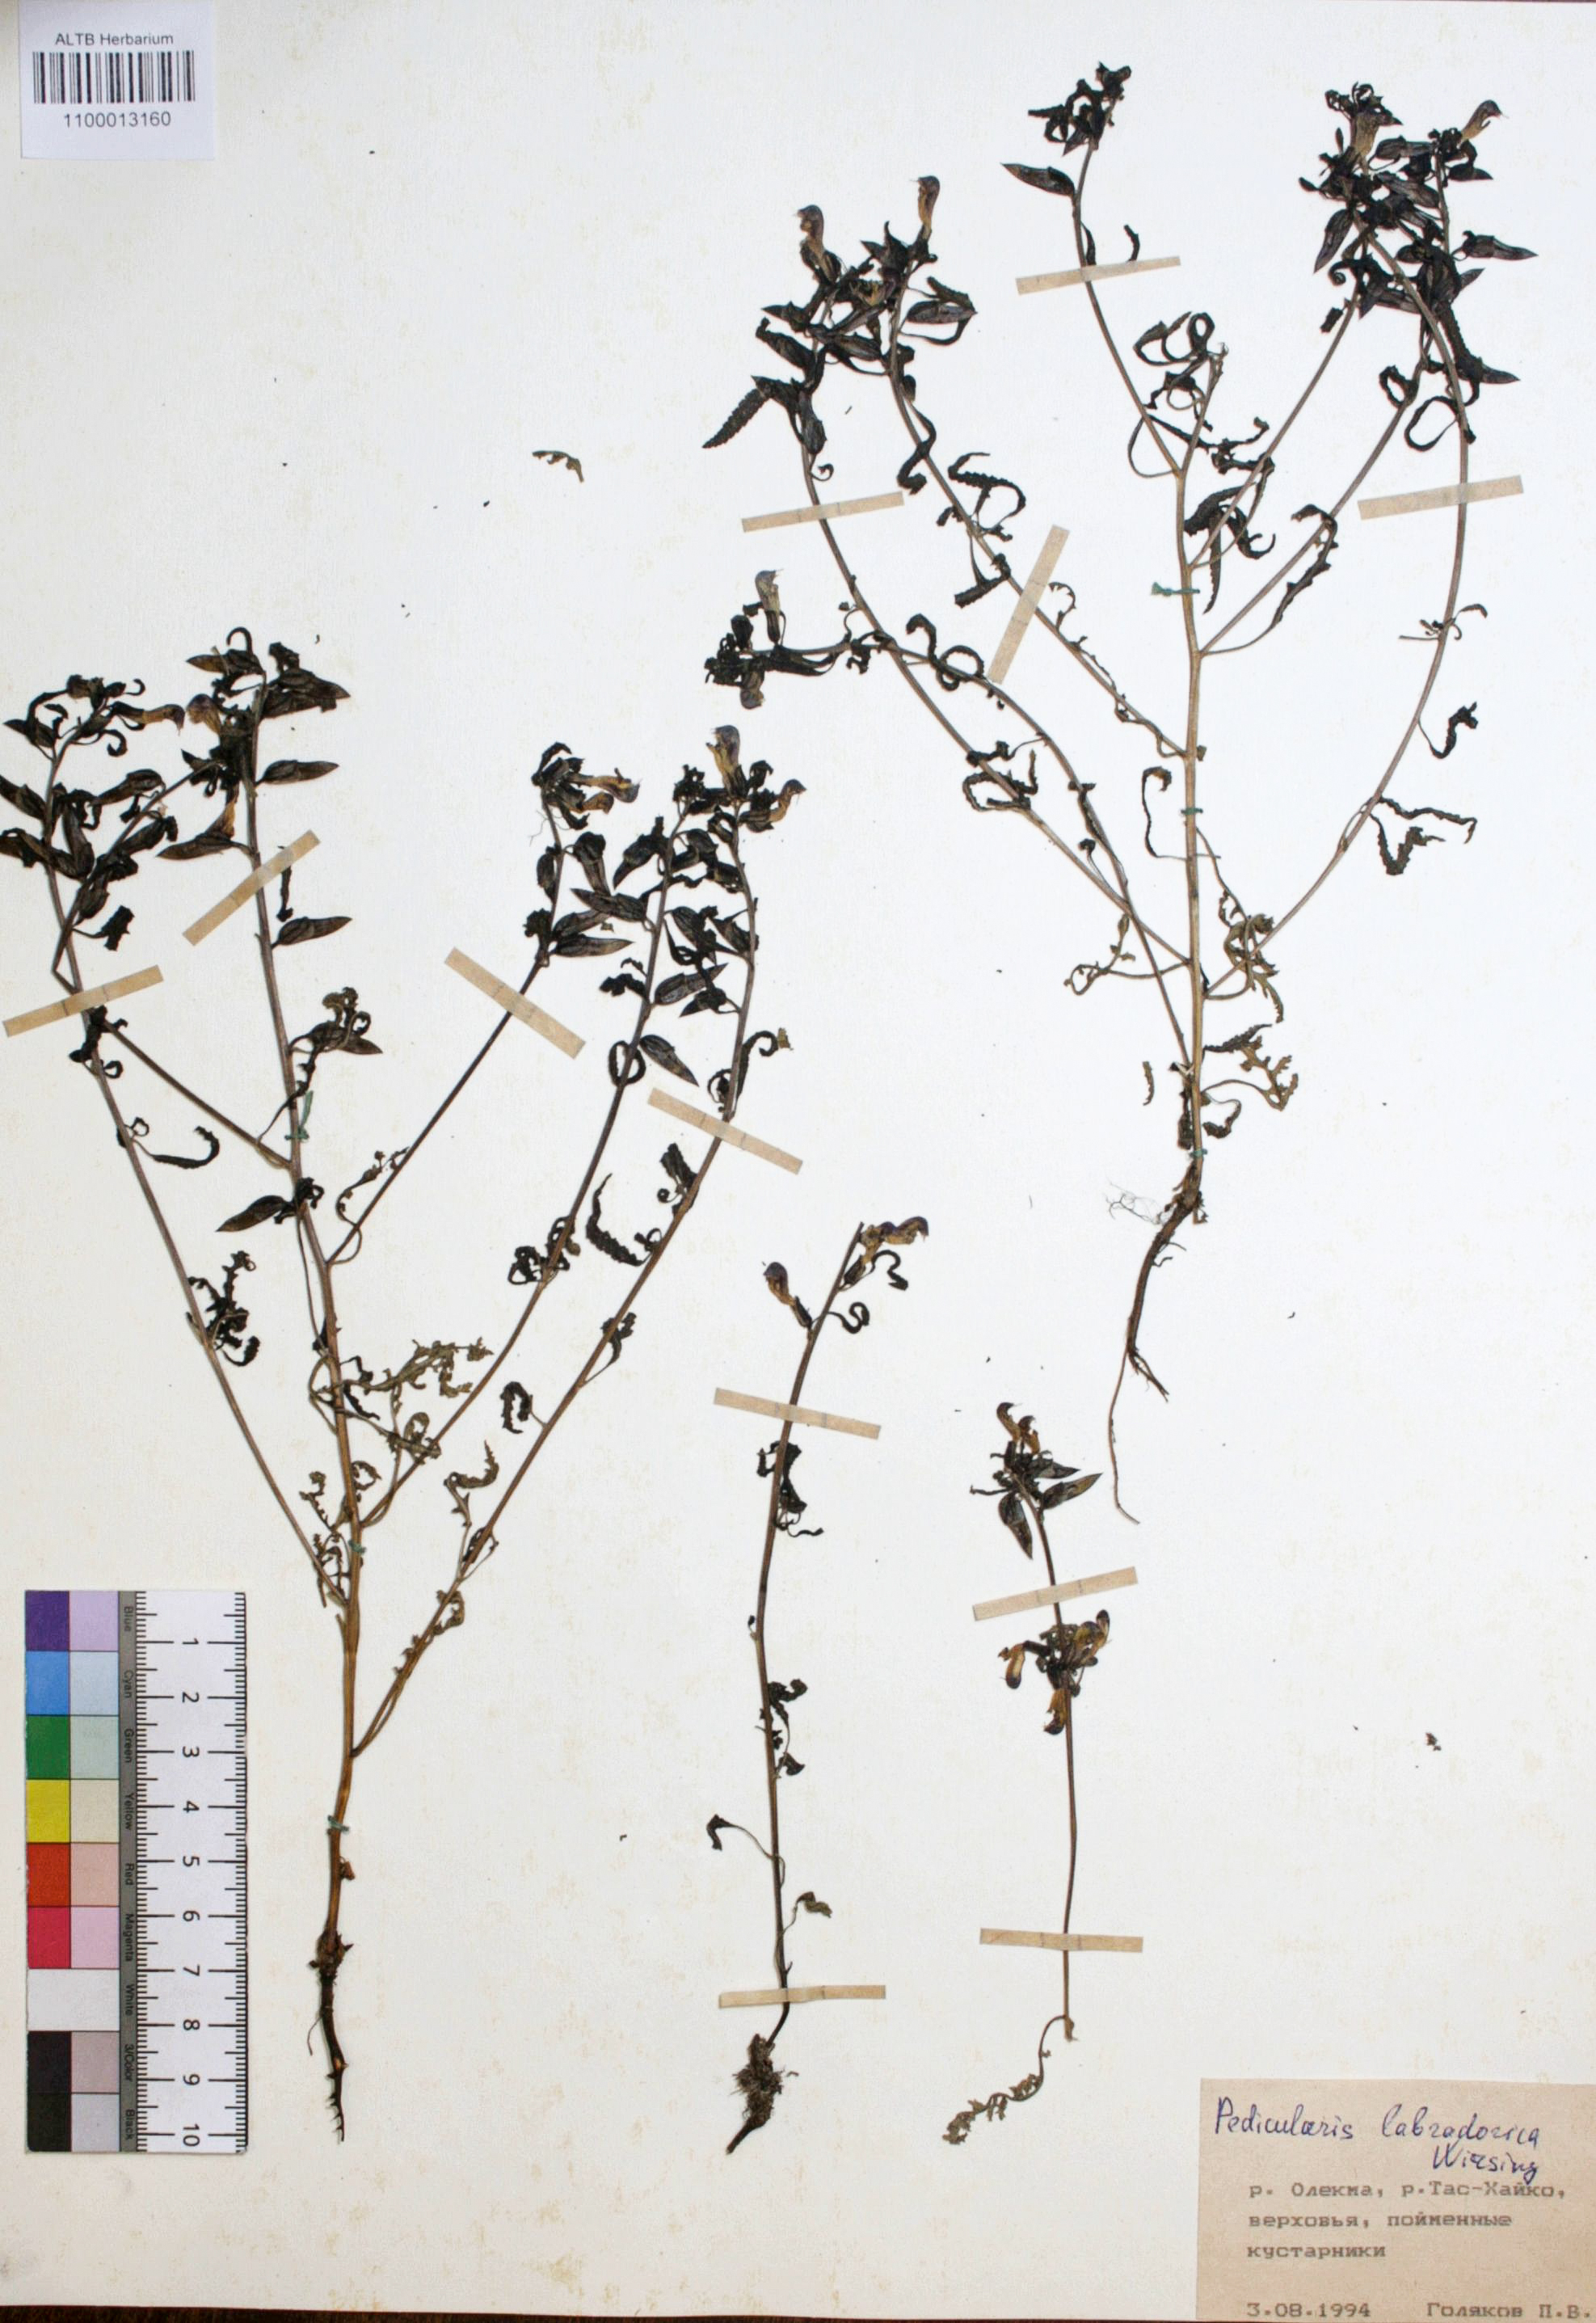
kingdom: Plantae
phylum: Tracheophyta
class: Magnoliopsida
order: Lamiales
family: Orobanchaceae
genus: Pedicularis
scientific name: Pedicularis labradorica
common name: Labrador lousewort
